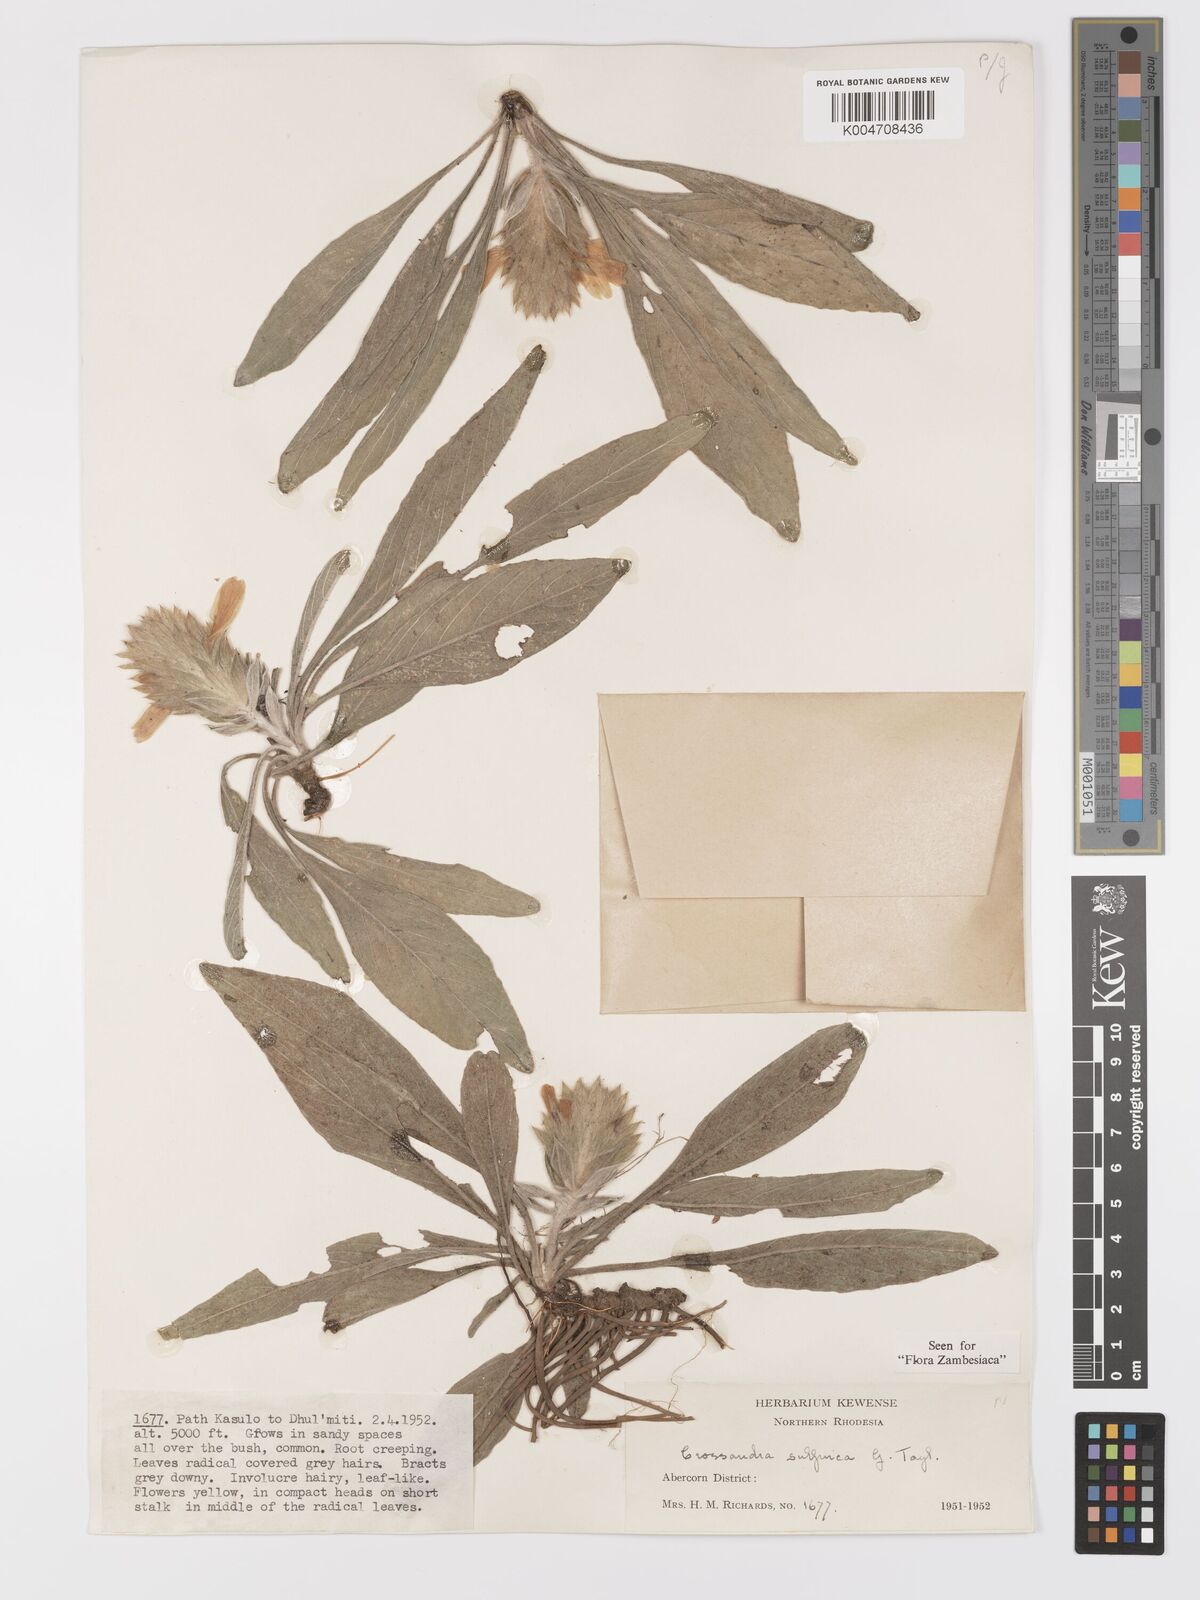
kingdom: Plantae
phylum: Tracheophyta
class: Magnoliopsida
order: Lamiales
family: Acanthaceae
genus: Crossandra
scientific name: Crossandra sulphurea
